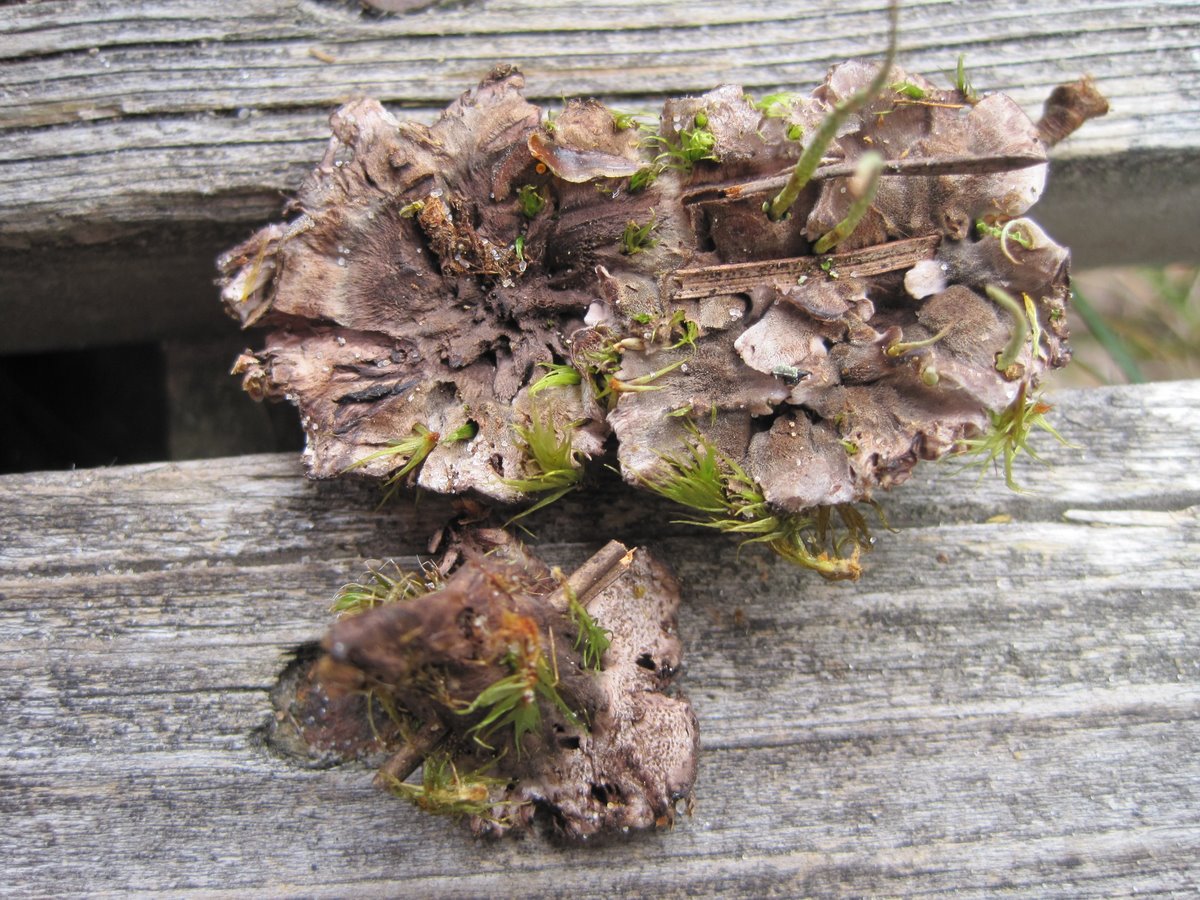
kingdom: Fungi
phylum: Basidiomycota
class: Agaricomycetes
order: Thelephorales
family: Thelephoraceae
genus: Phellodon
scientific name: Phellodon tomentosus
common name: tragtformet duftpigsvamp
